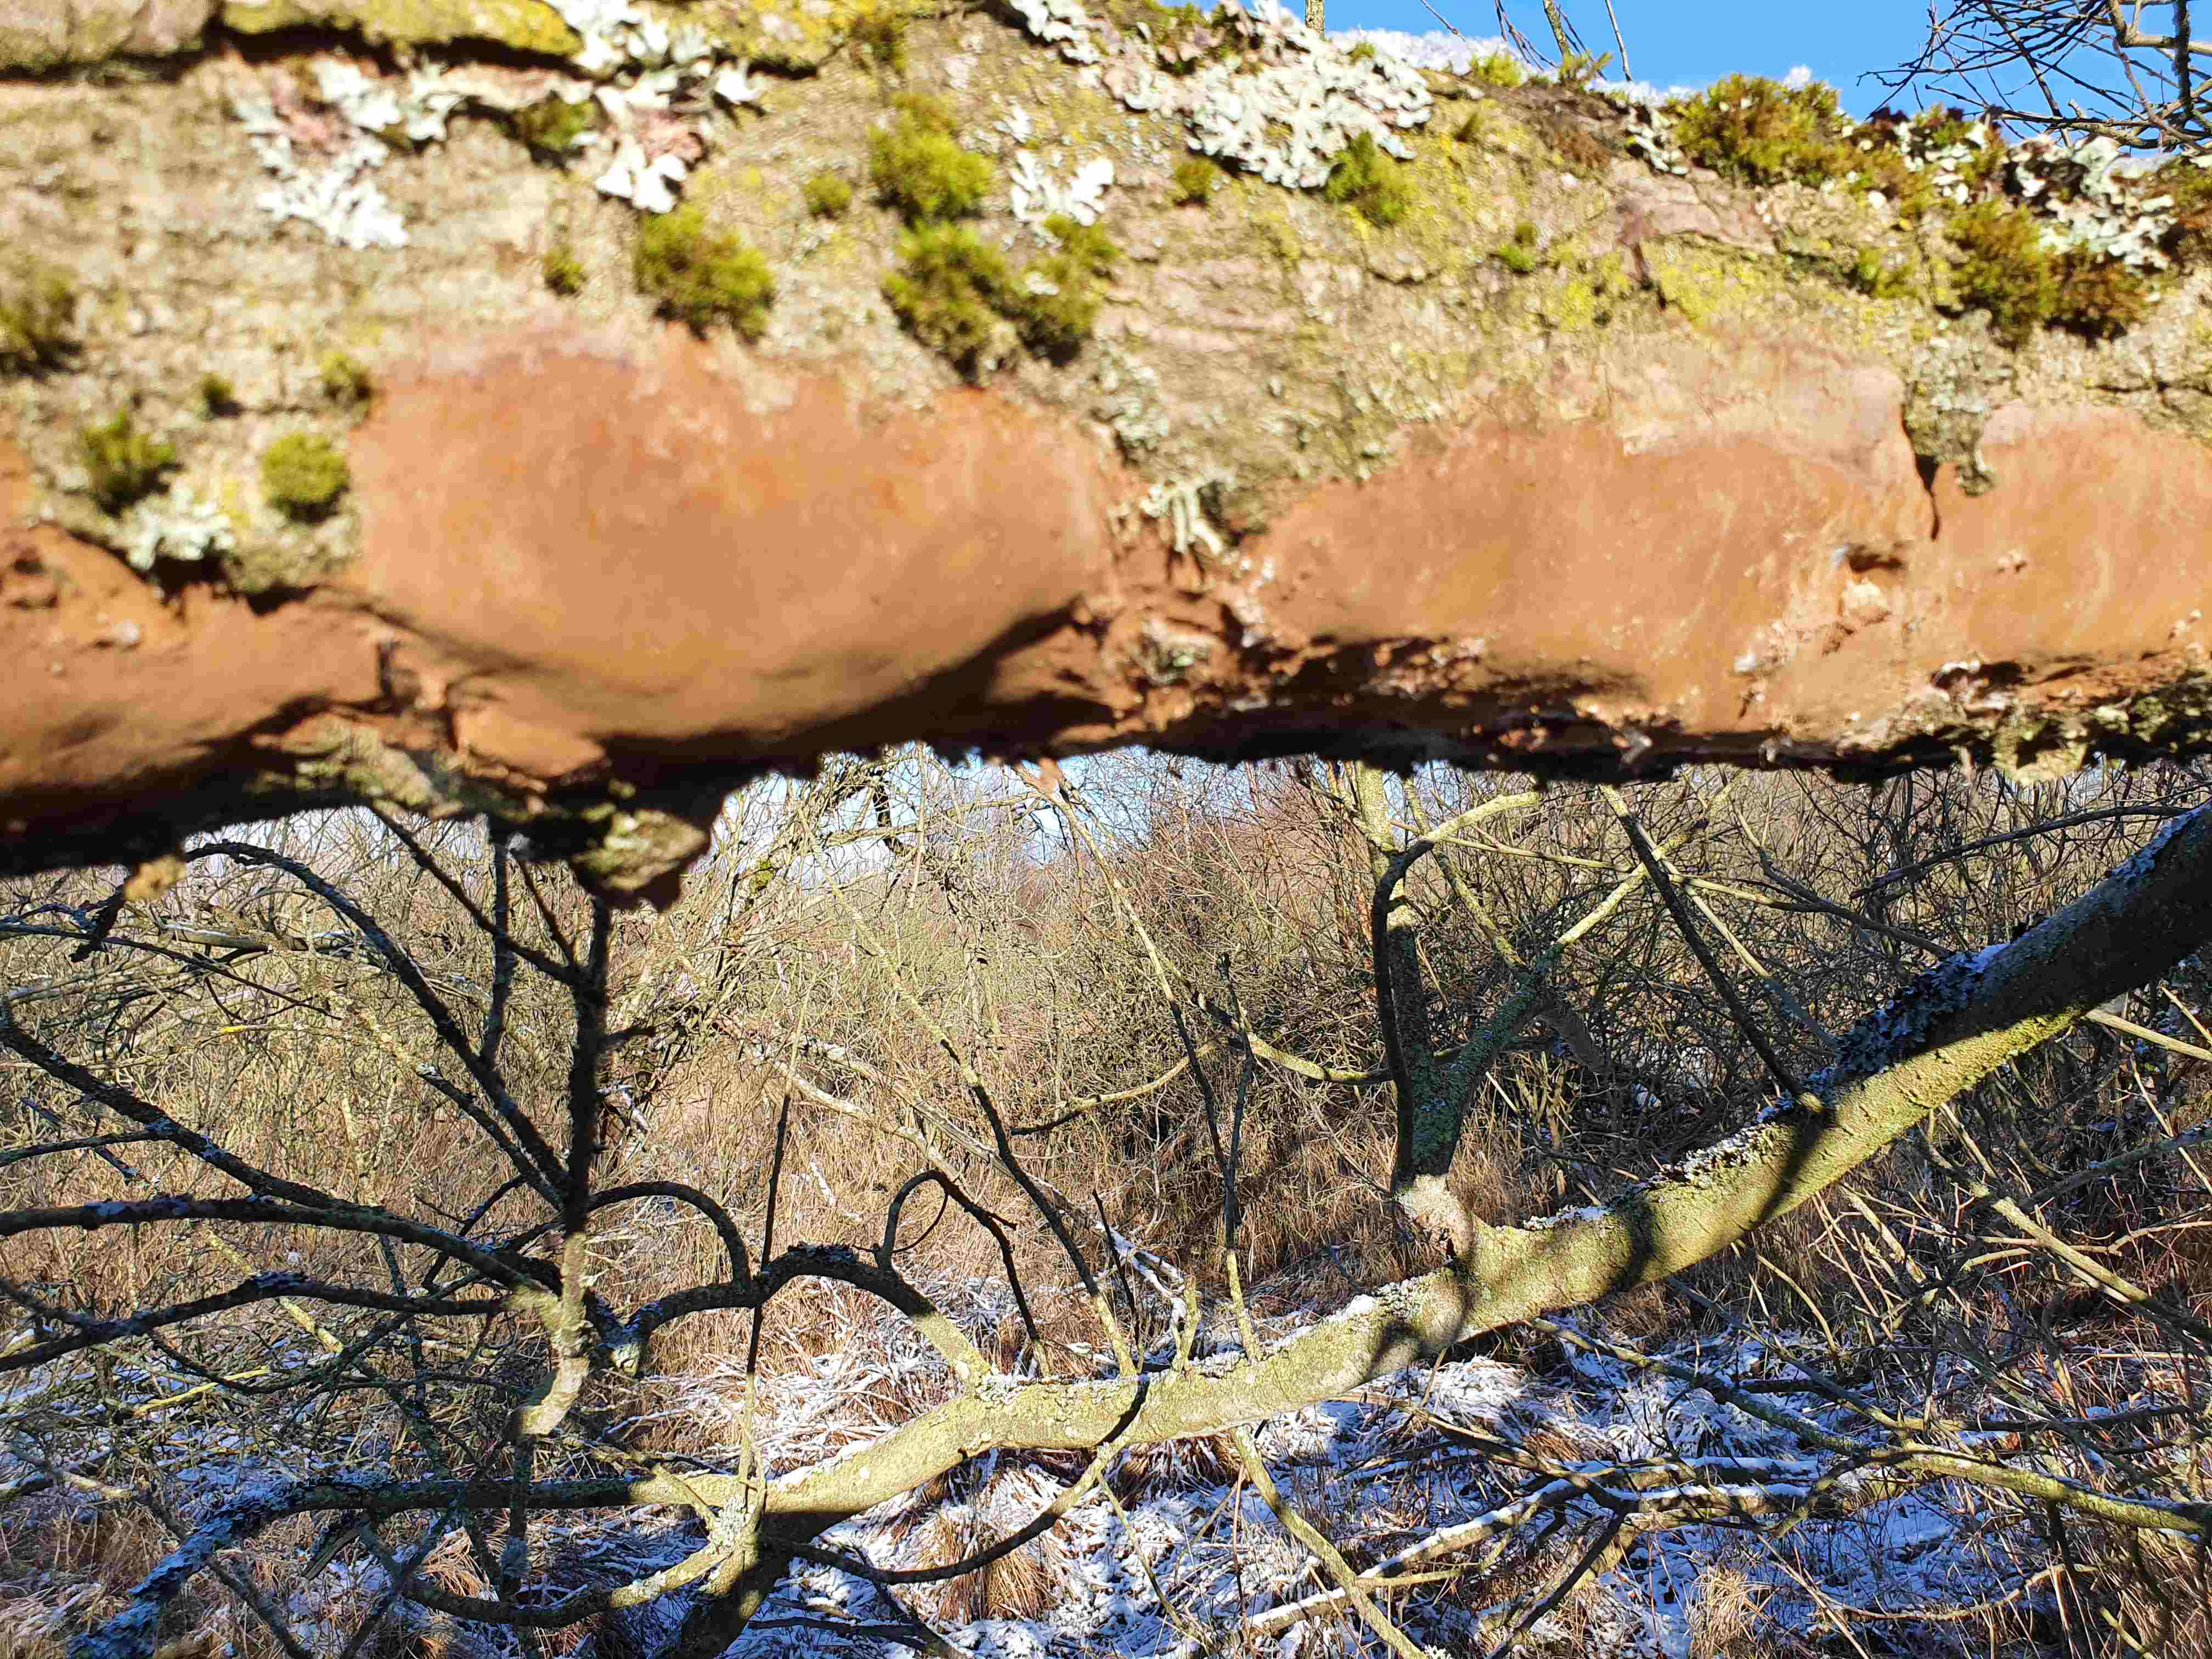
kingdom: Fungi
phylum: Basidiomycota
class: Agaricomycetes
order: Hymenochaetales
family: Hymenochaetaceae
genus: Fomitiporia
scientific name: Fomitiporia punctata
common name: pude-ildporesvamp
